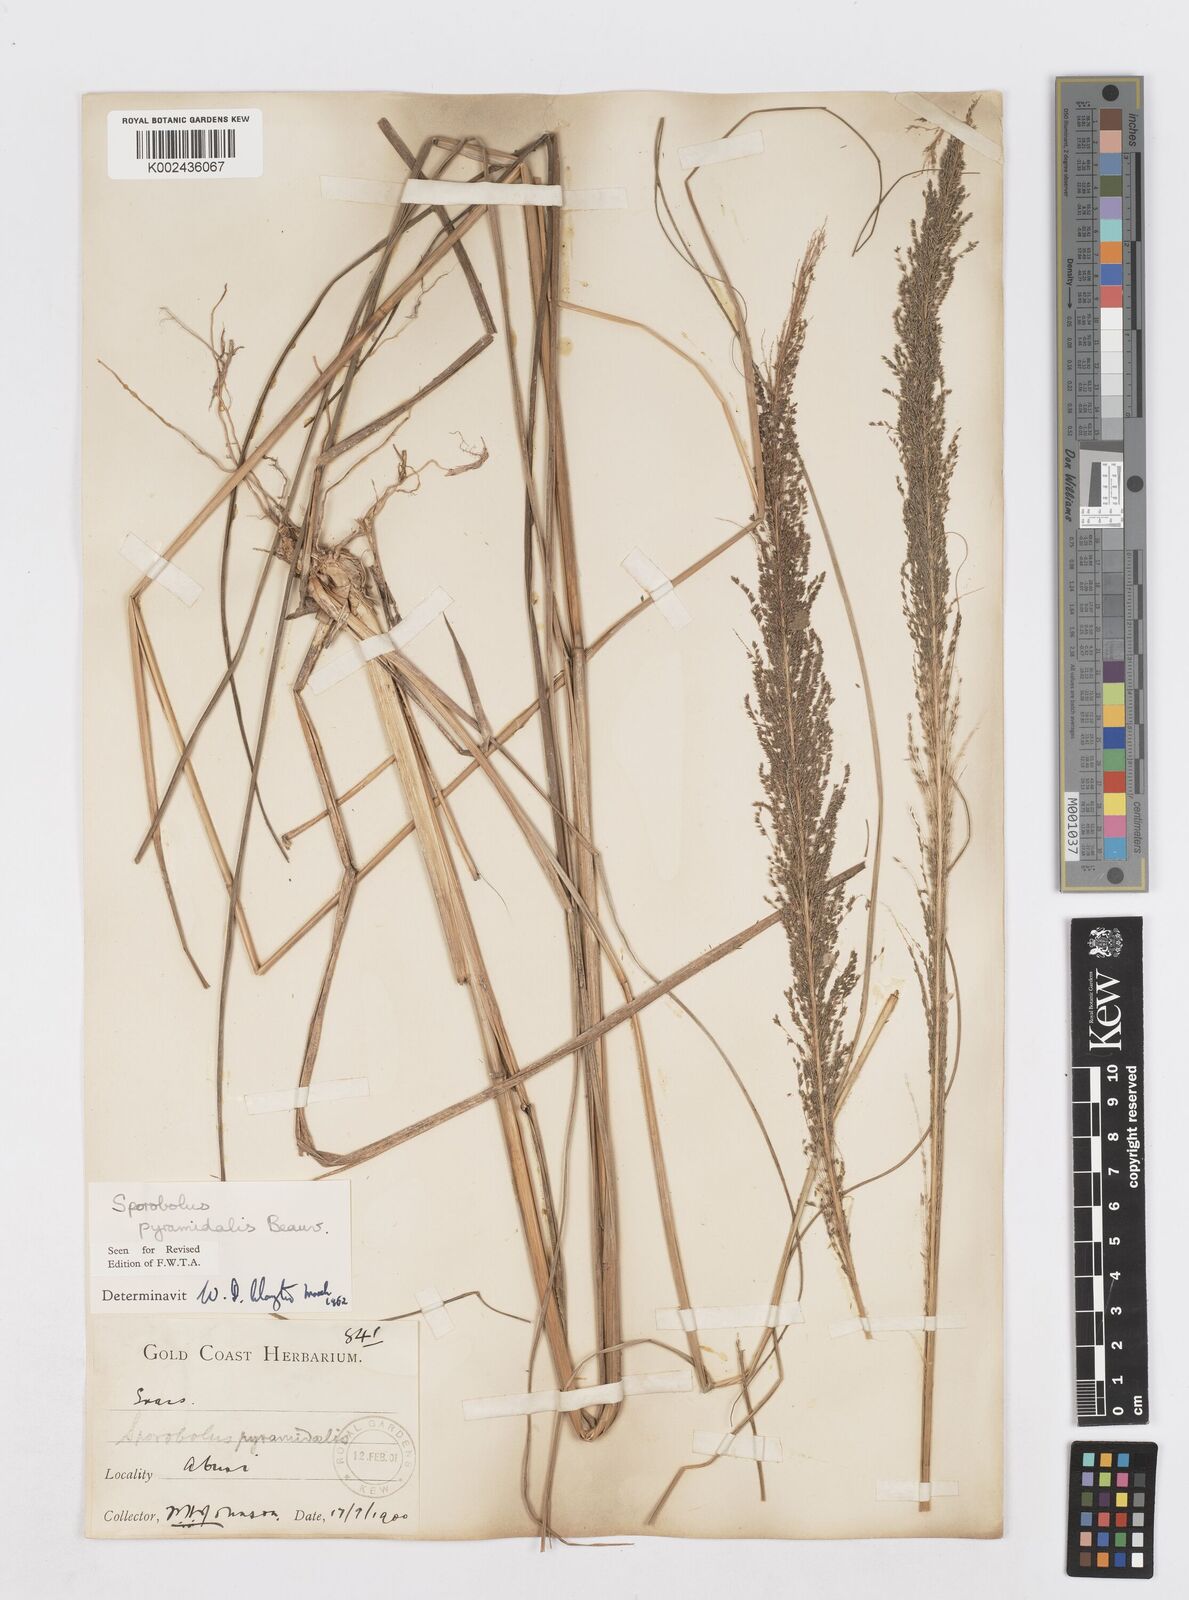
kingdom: Plantae
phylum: Tracheophyta
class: Liliopsida
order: Poales
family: Poaceae
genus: Sporobolus
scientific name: Sporobolus pyramidalis
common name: West indian dropseed
